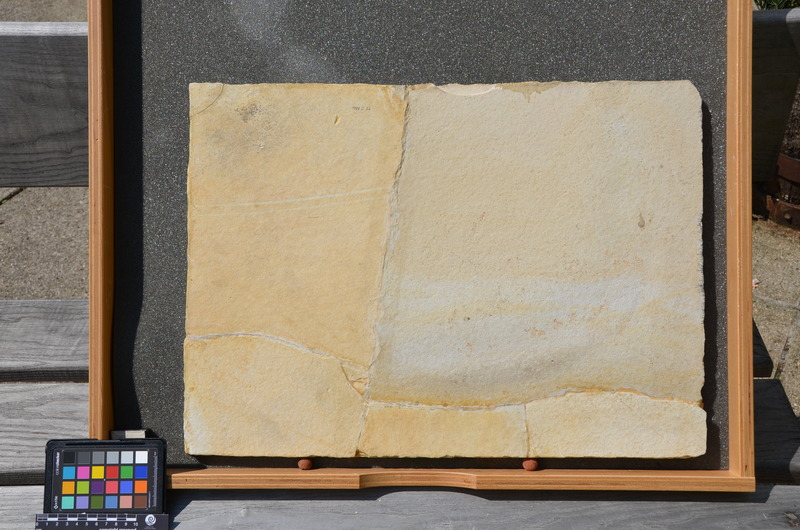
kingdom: Animalia
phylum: Chordata
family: Aspidorhynchidae
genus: Aspidorhynchus
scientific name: Aspidorhynchus acutirostris
